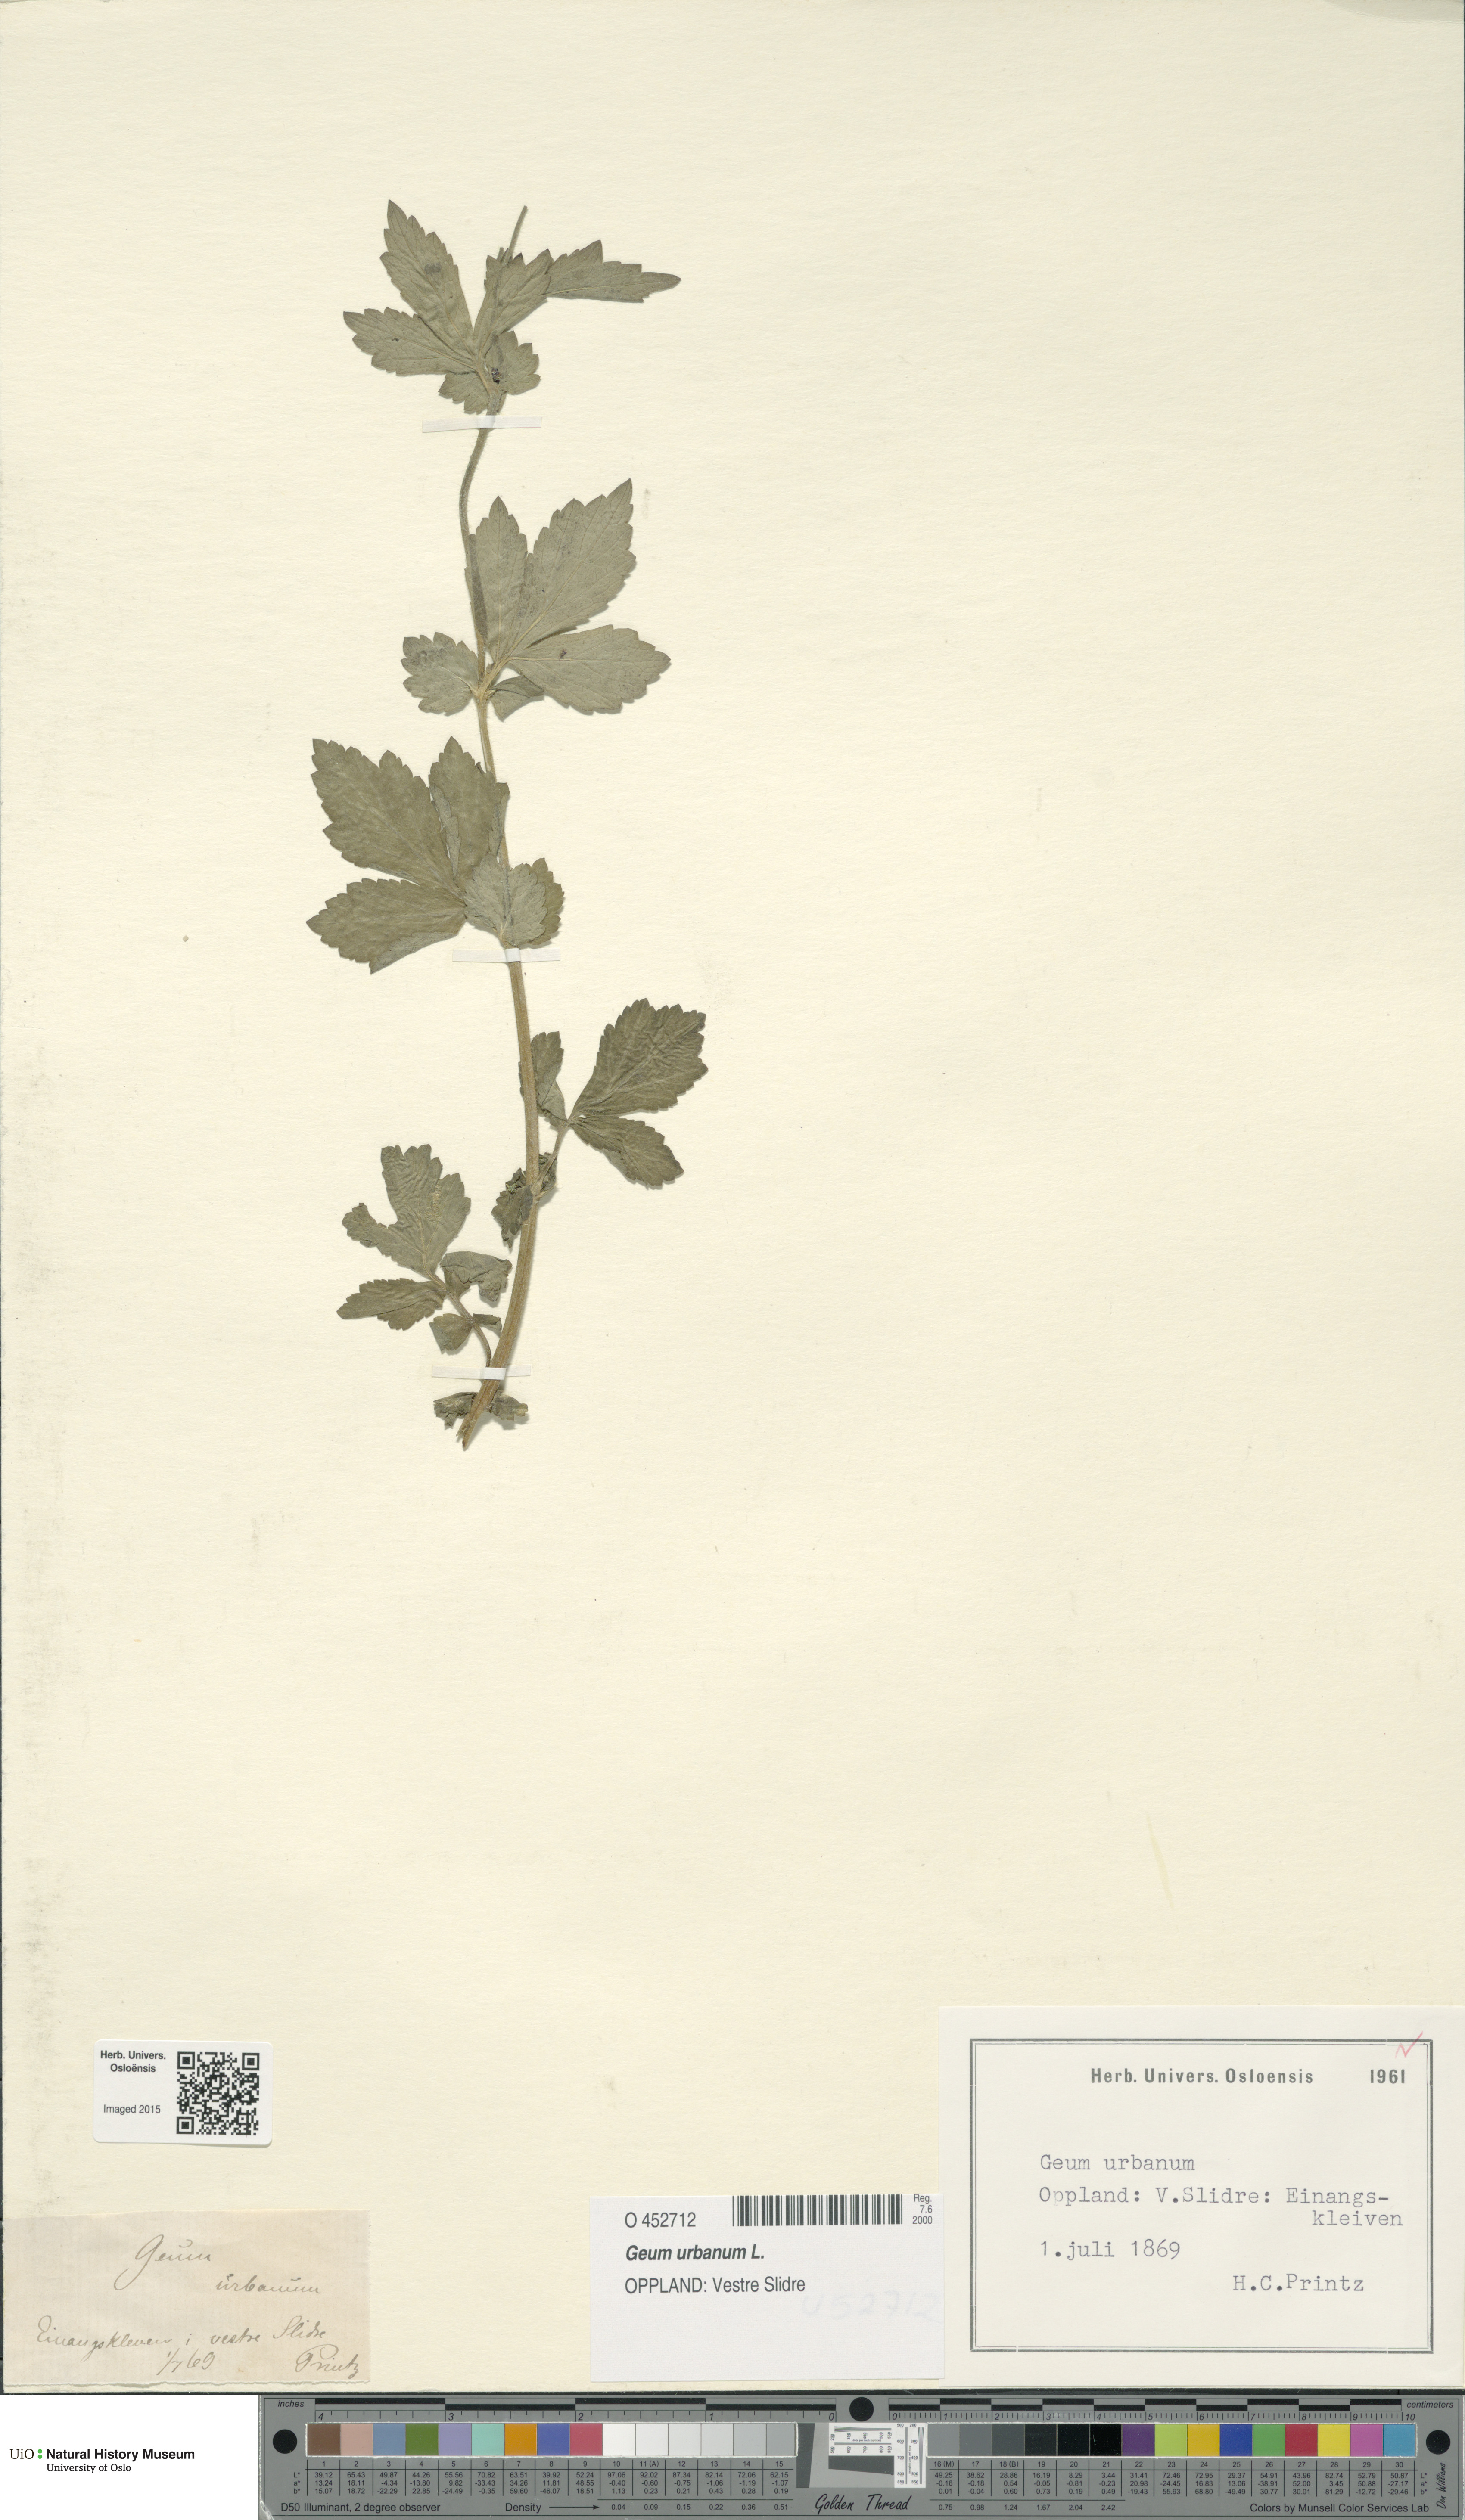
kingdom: Plantae
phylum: Tracheophyta
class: Magnoliopsida
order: Rosales
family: Rosaceae
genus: Geum
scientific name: Geum urbanum
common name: Wood avens
